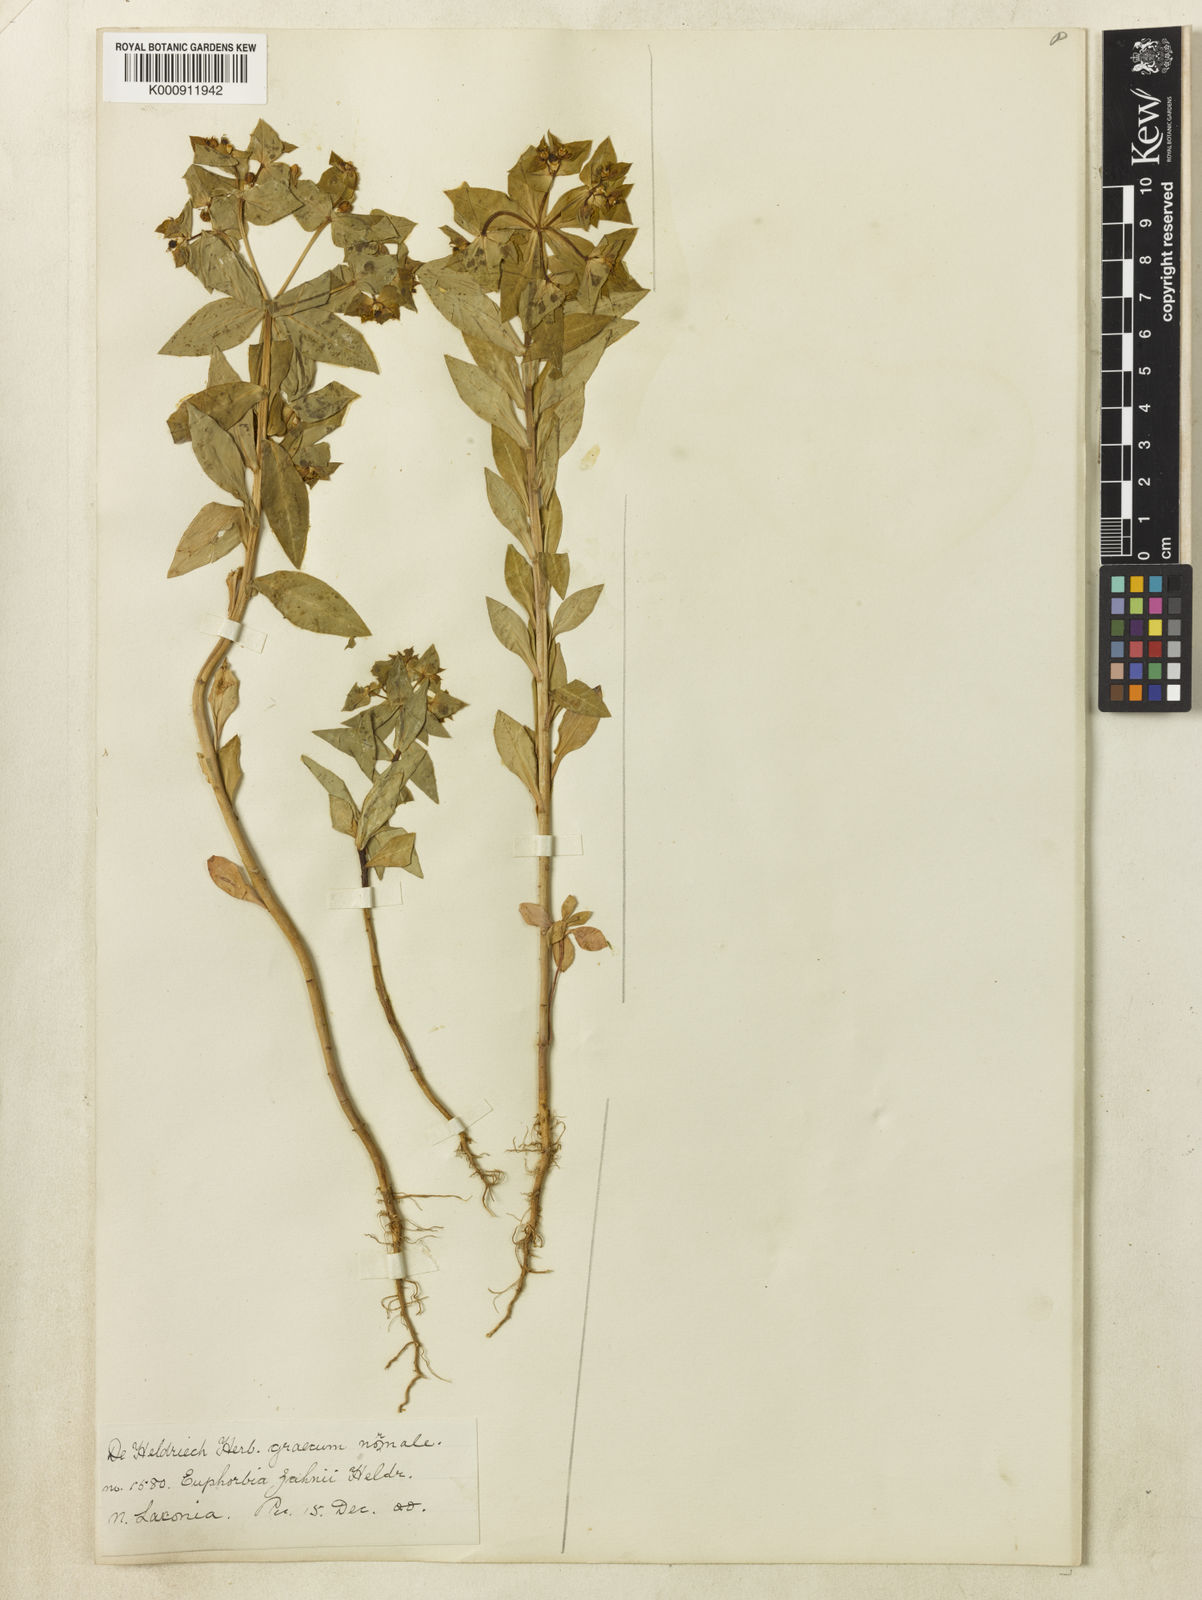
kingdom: Plantae
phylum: Tracheophyta
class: Magnoliopsida
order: Malpighiales
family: Euphorbiaceae
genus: Euphorbia
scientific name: Euphorbia
